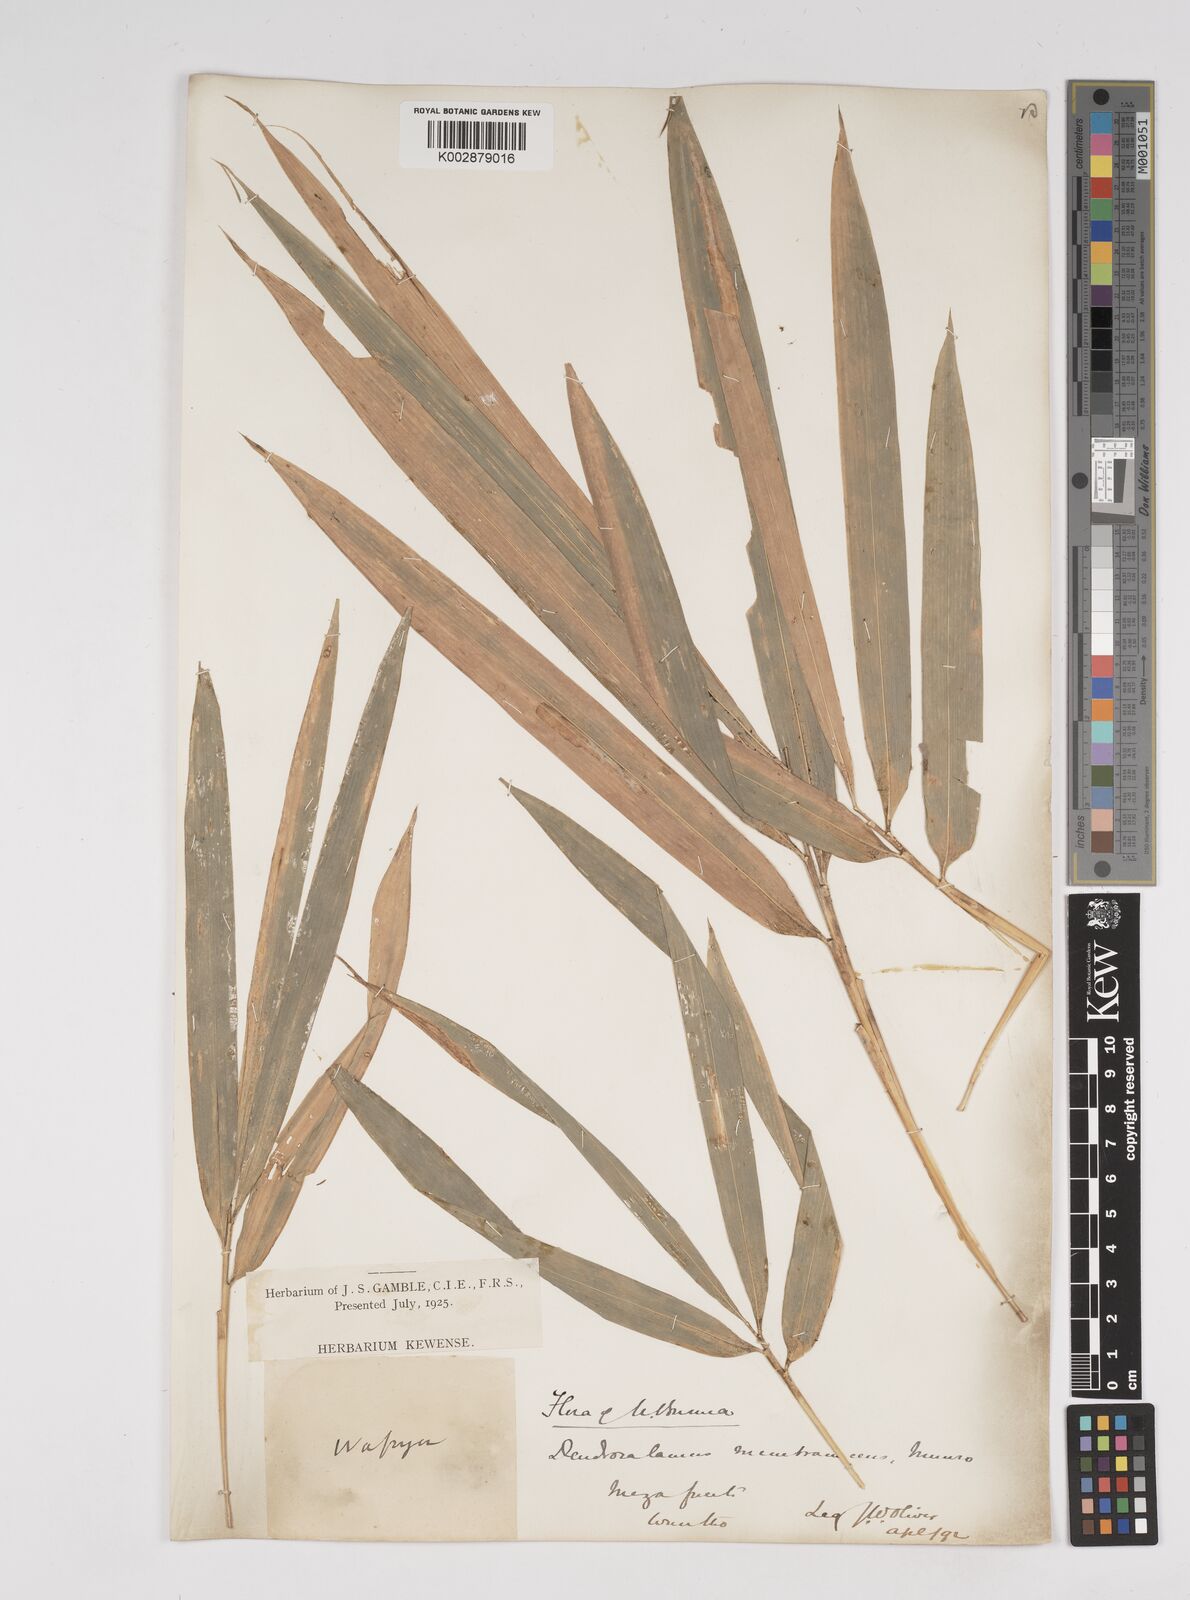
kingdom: Plantae
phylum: Tracheophyta
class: Liliopsida
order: Poales
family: Poaceae
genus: Dendrocalamus
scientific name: Dendrocalamus membranaceus
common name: White bamboo
